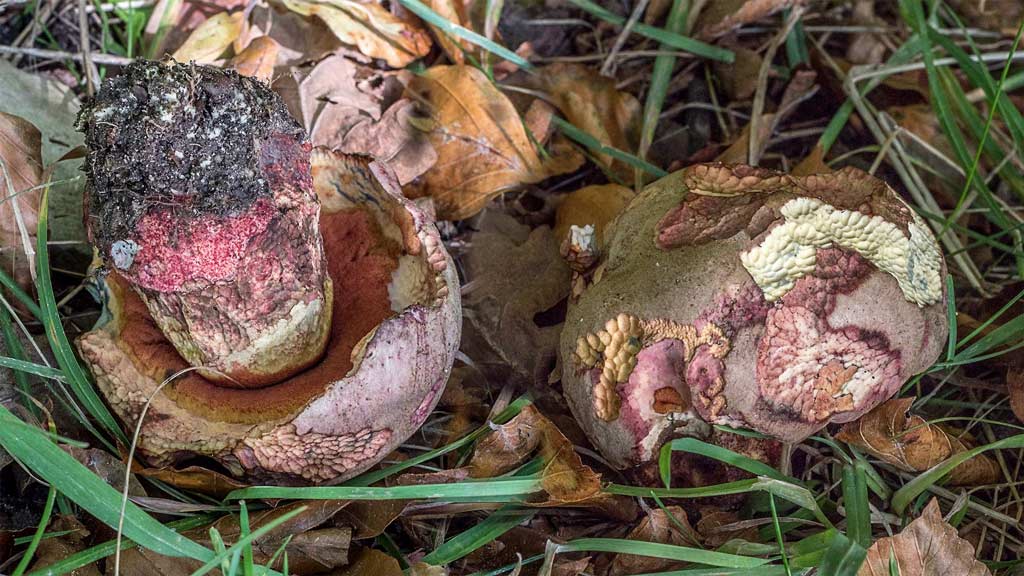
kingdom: Fungi
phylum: Basidiomycota
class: Agaricomycetes
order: Boletales
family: Boletaceae
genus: Rubroboletus
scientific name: Rubroboletus legaliae
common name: djævle-rørhat
